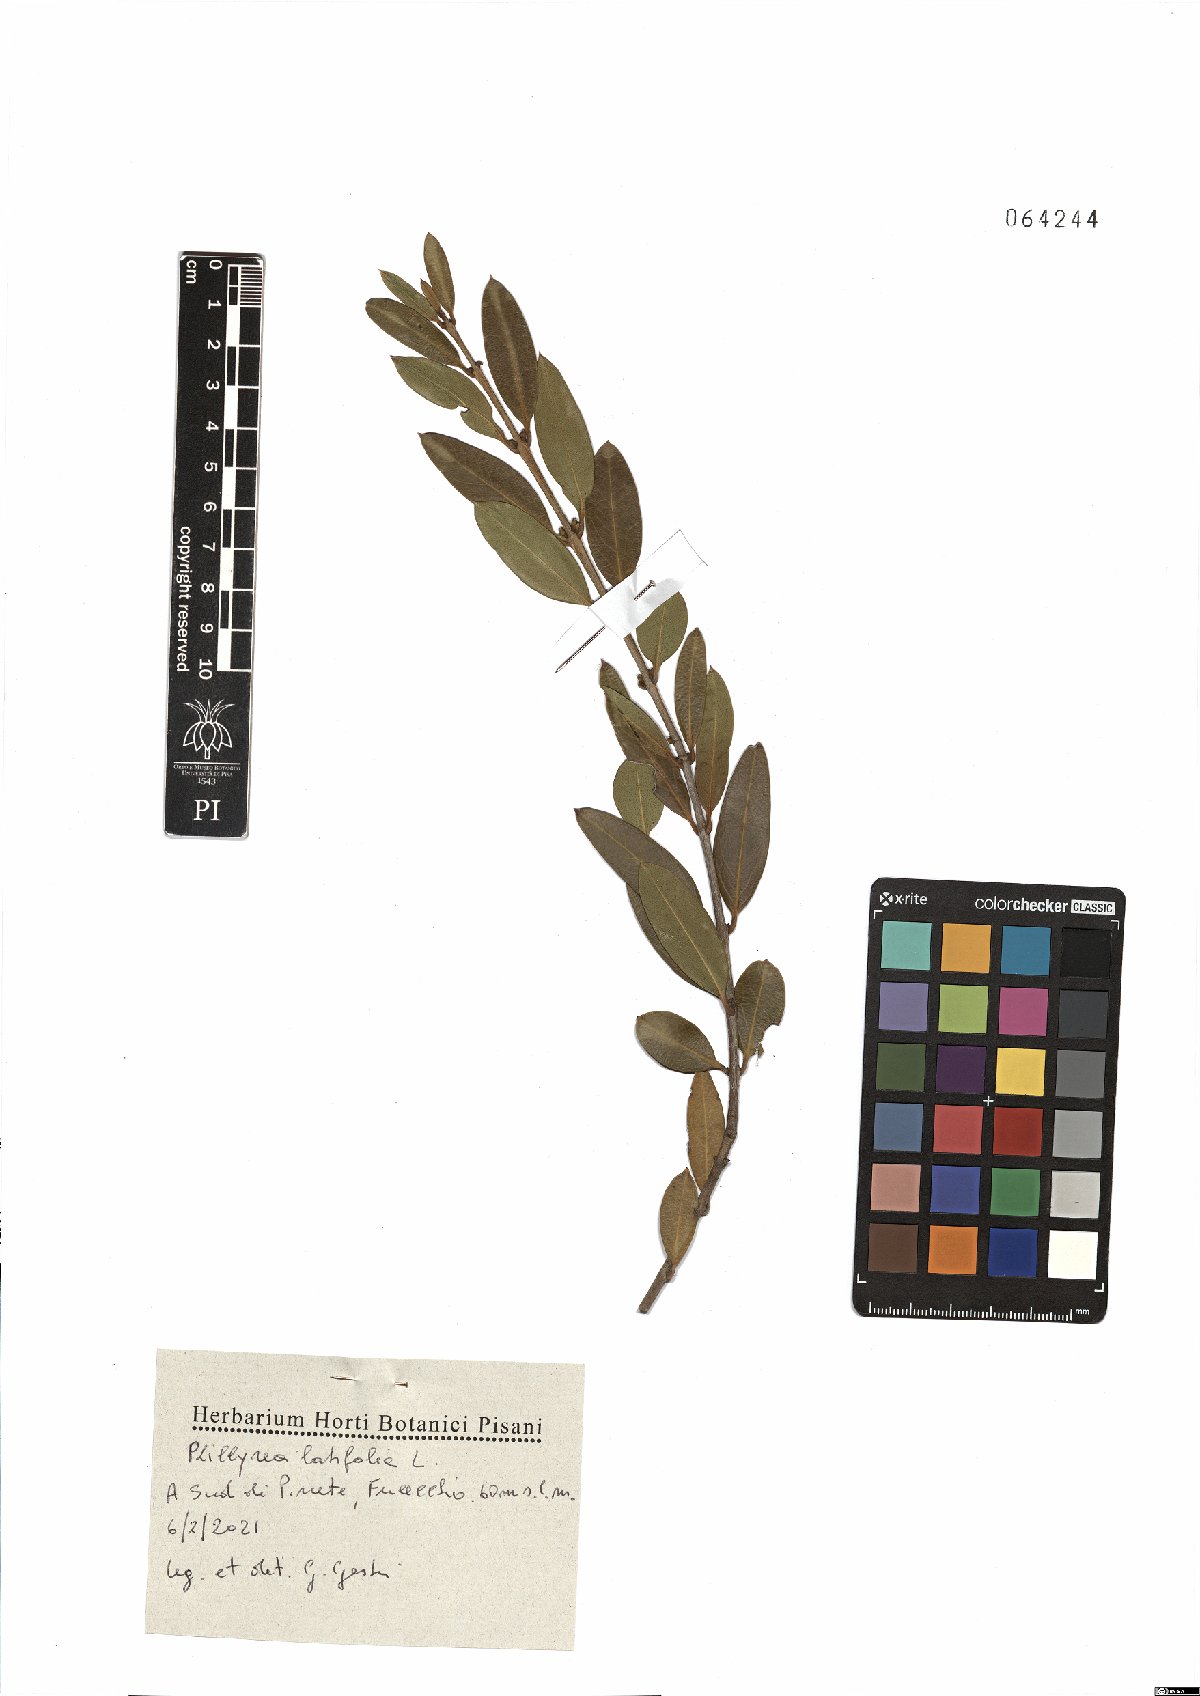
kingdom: Plantae
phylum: Tracheophyta
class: Magnoliopsida
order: Lamiales
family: Oleaceae
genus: Phillyrea
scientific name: Phillyrea latifolia
